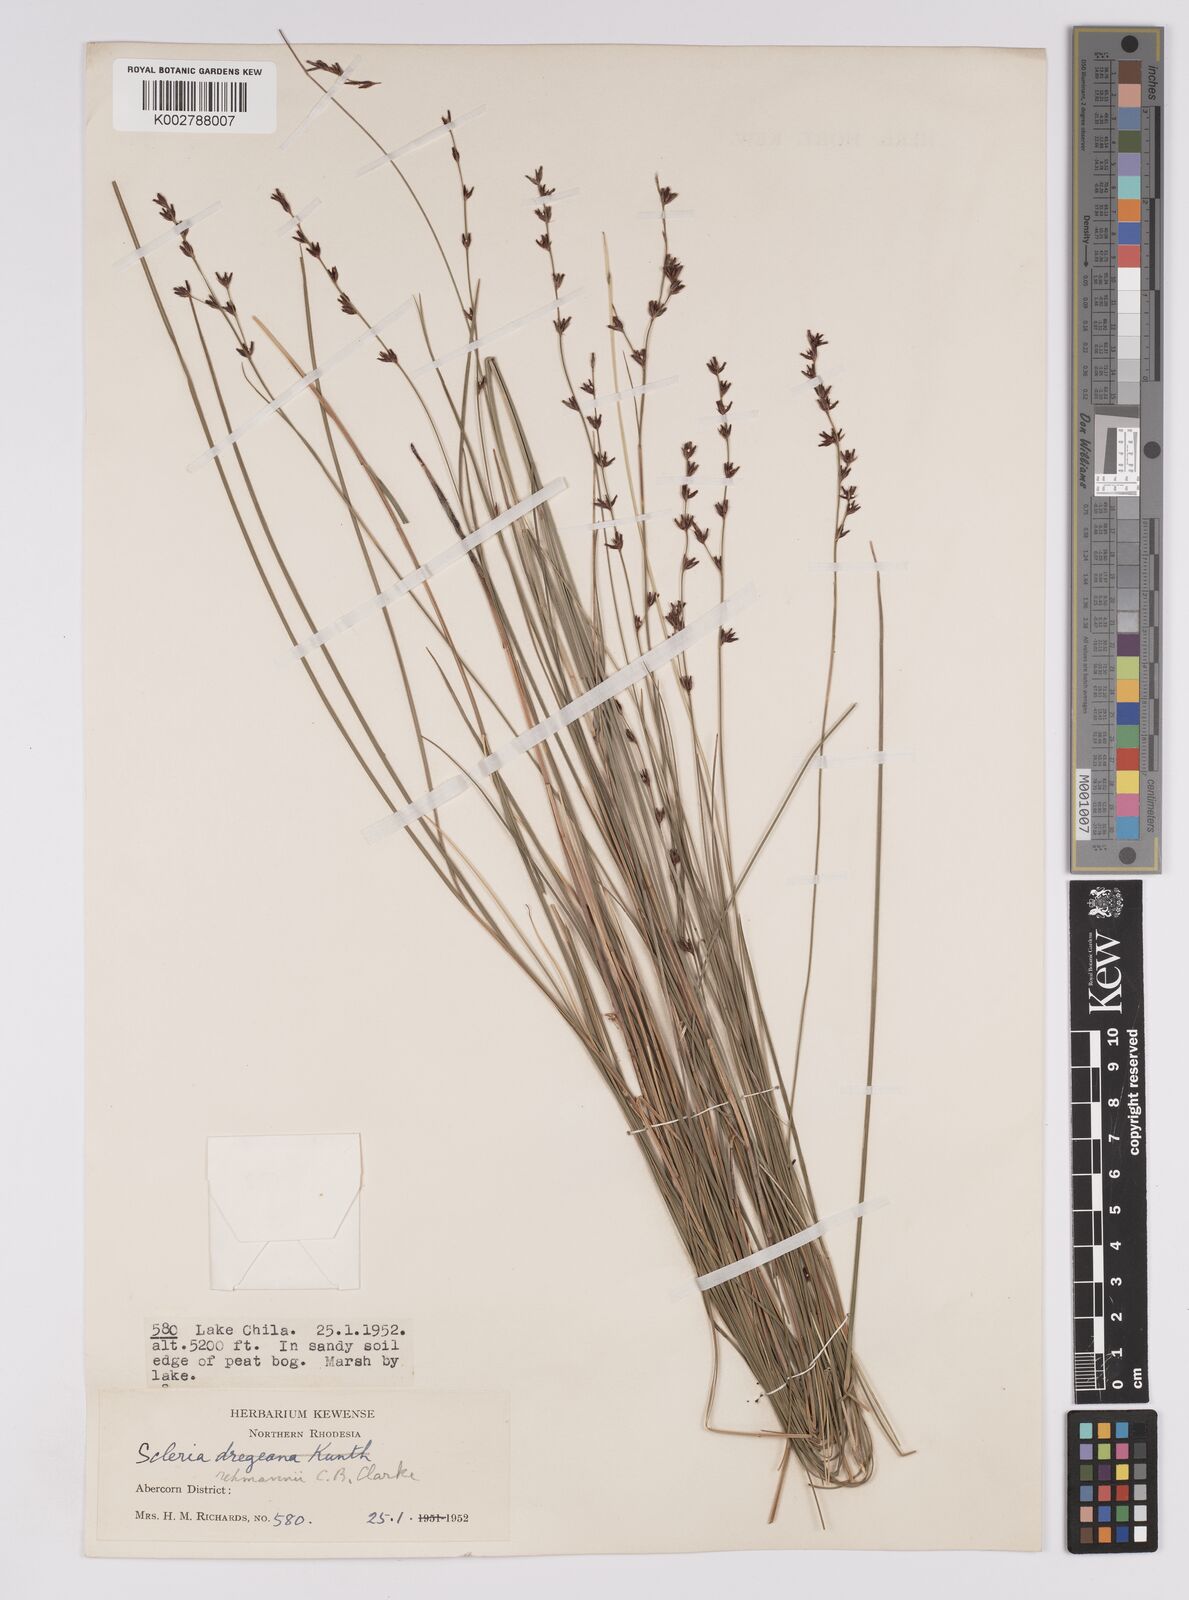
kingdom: Plantae
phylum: Tracheophyta
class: Liliopsida
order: Poales
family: Cyperaceae
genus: Scleria
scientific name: Scleria rehmannii
